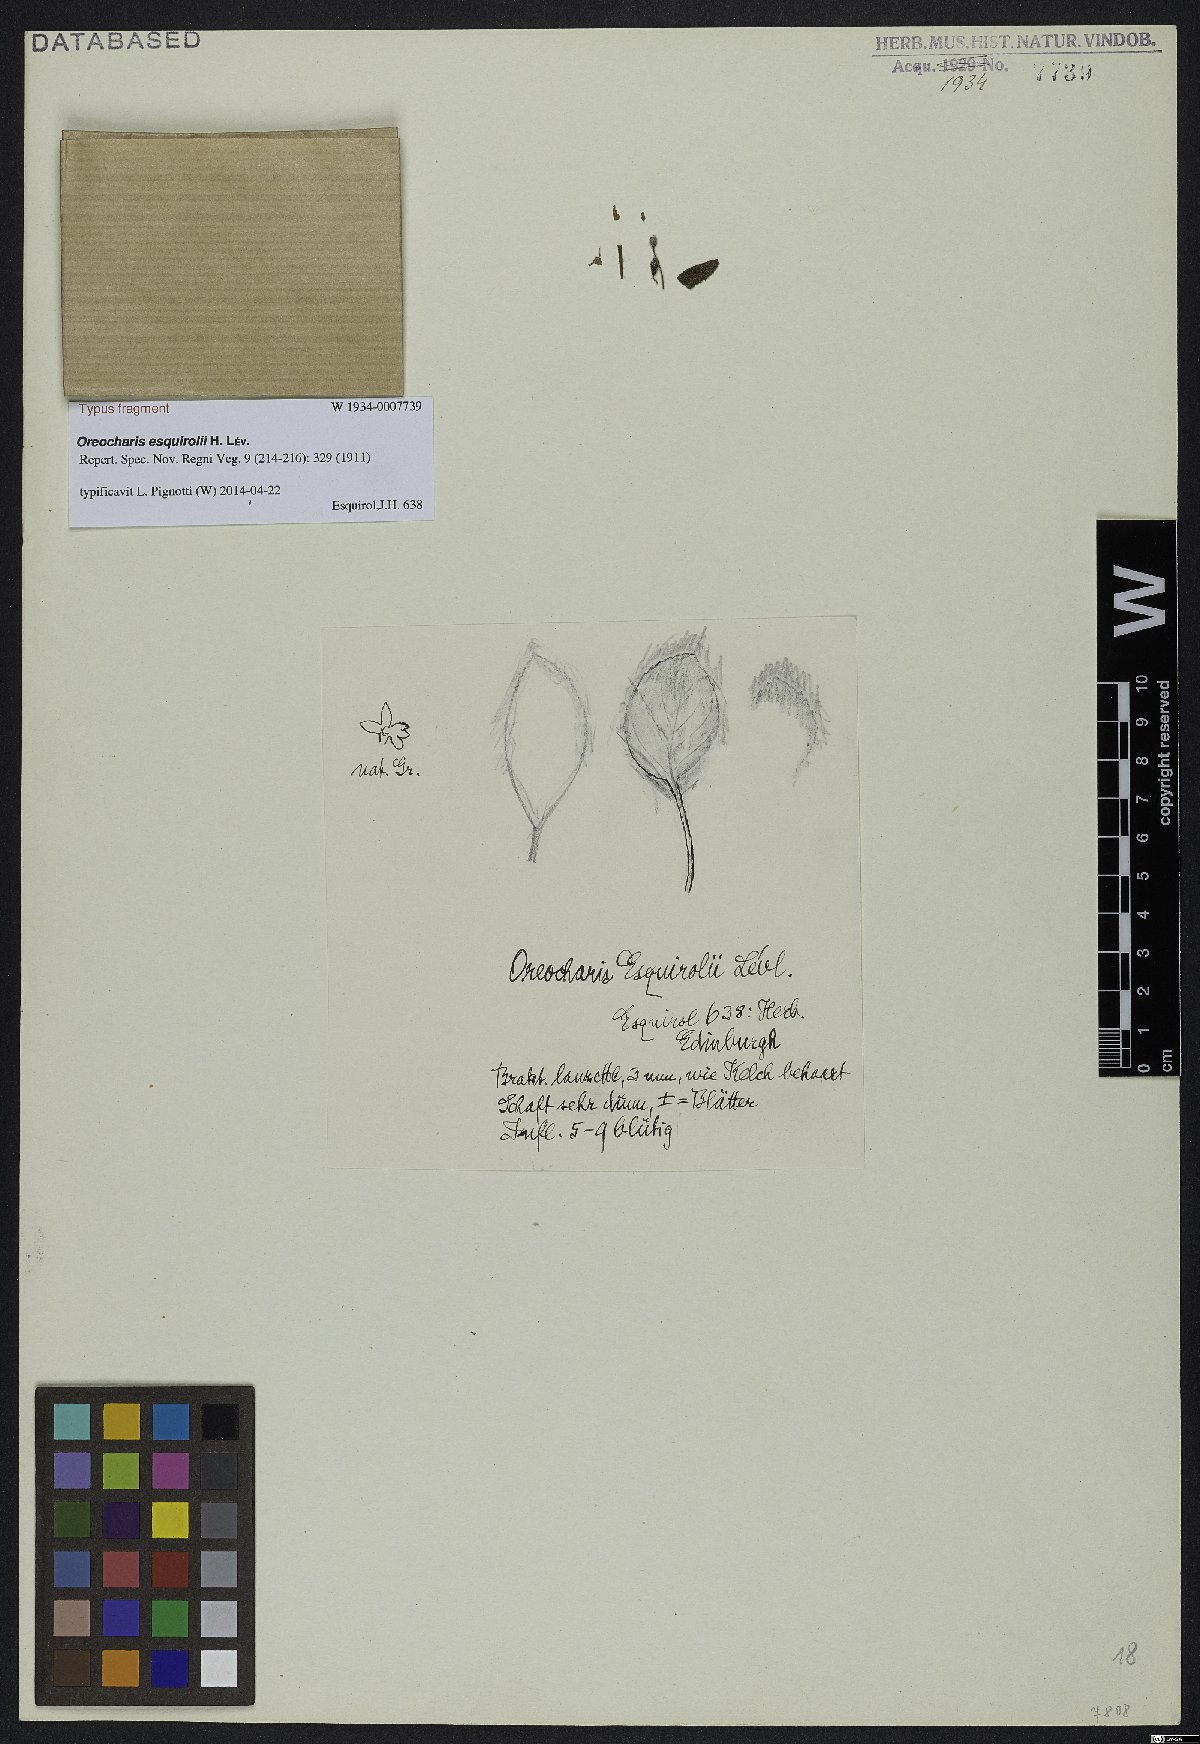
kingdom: Plantae
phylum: Tracheophyta
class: Magnoliopsida
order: Lamiales
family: Gesneriaceae
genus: Oreocharis
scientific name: Oreocharis esquirolii
